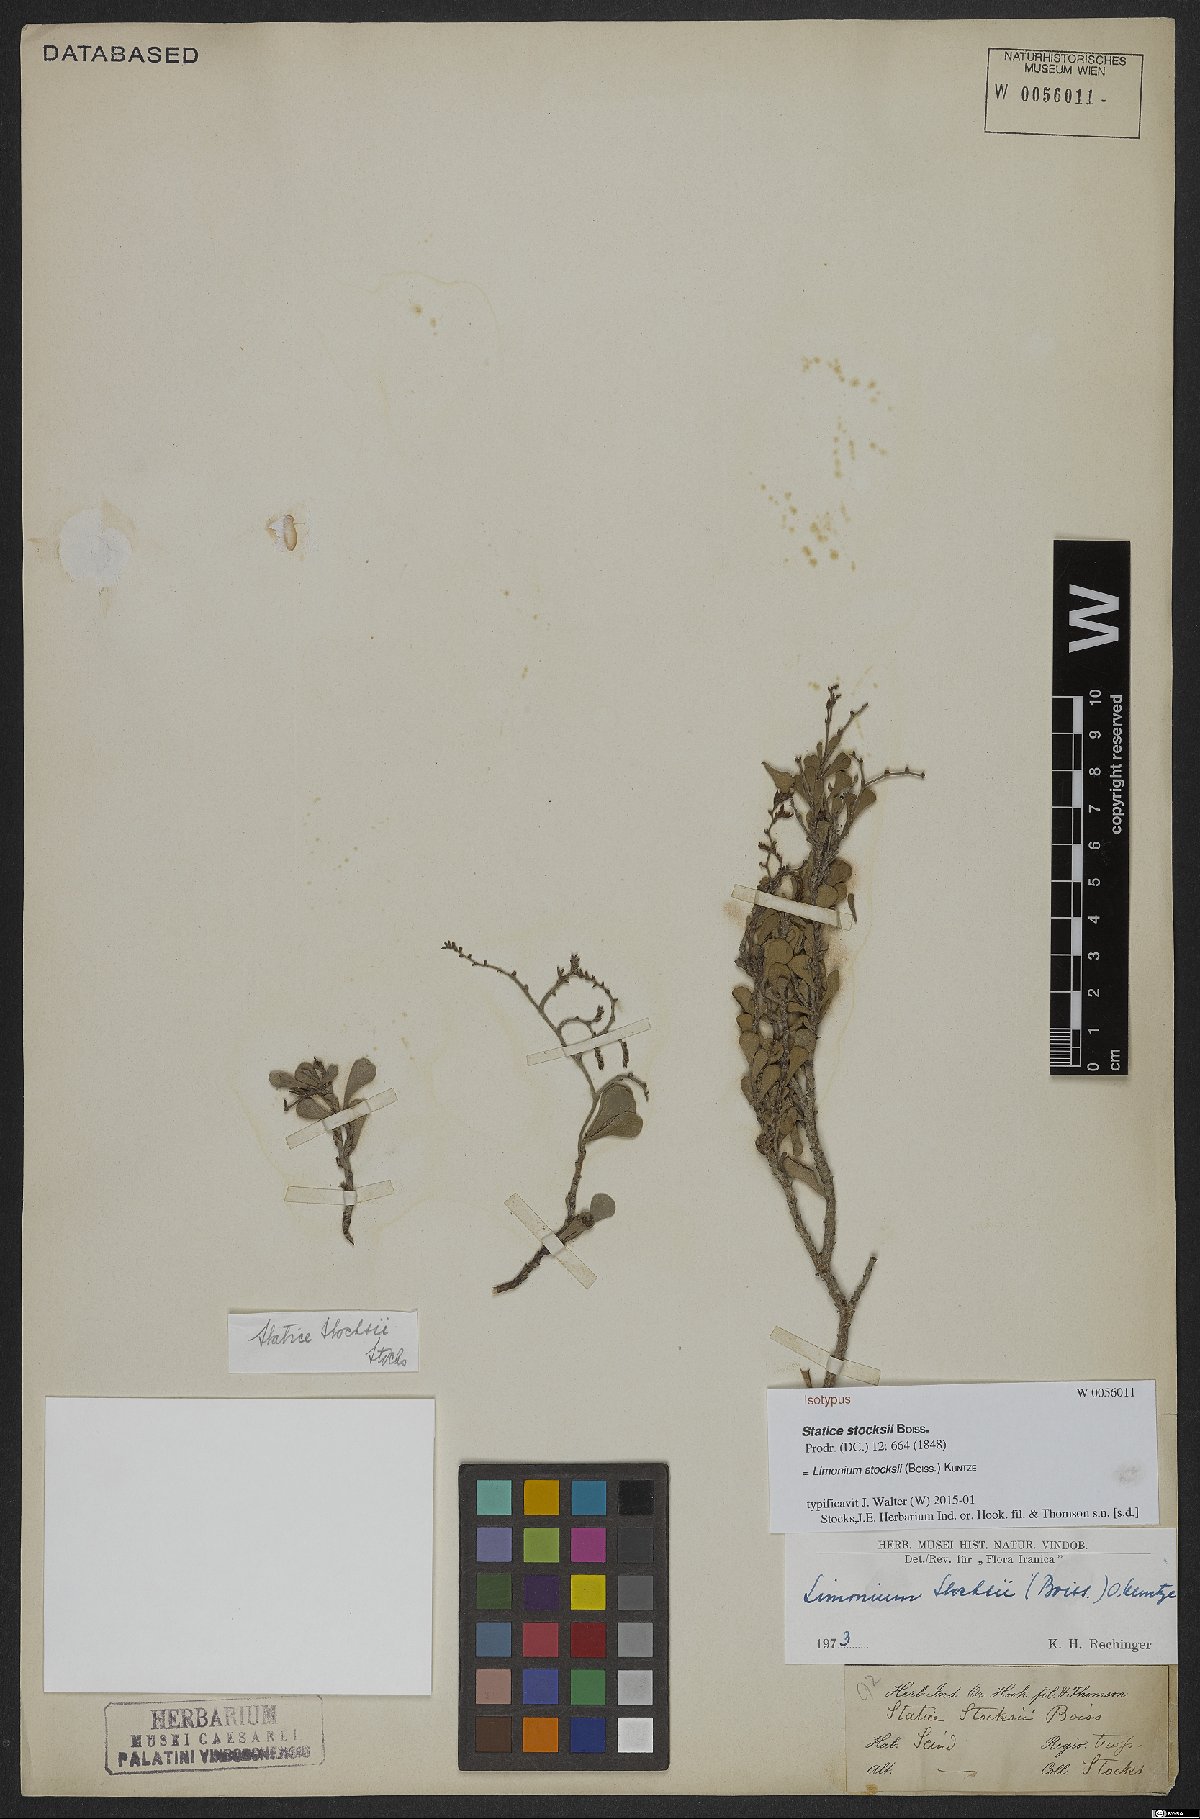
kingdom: Plantae
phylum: Tracheophyta
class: Magnoliopsida
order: Caryophyllales
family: Plumbaginaceae
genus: Limonium
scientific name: Limonium stocksii
